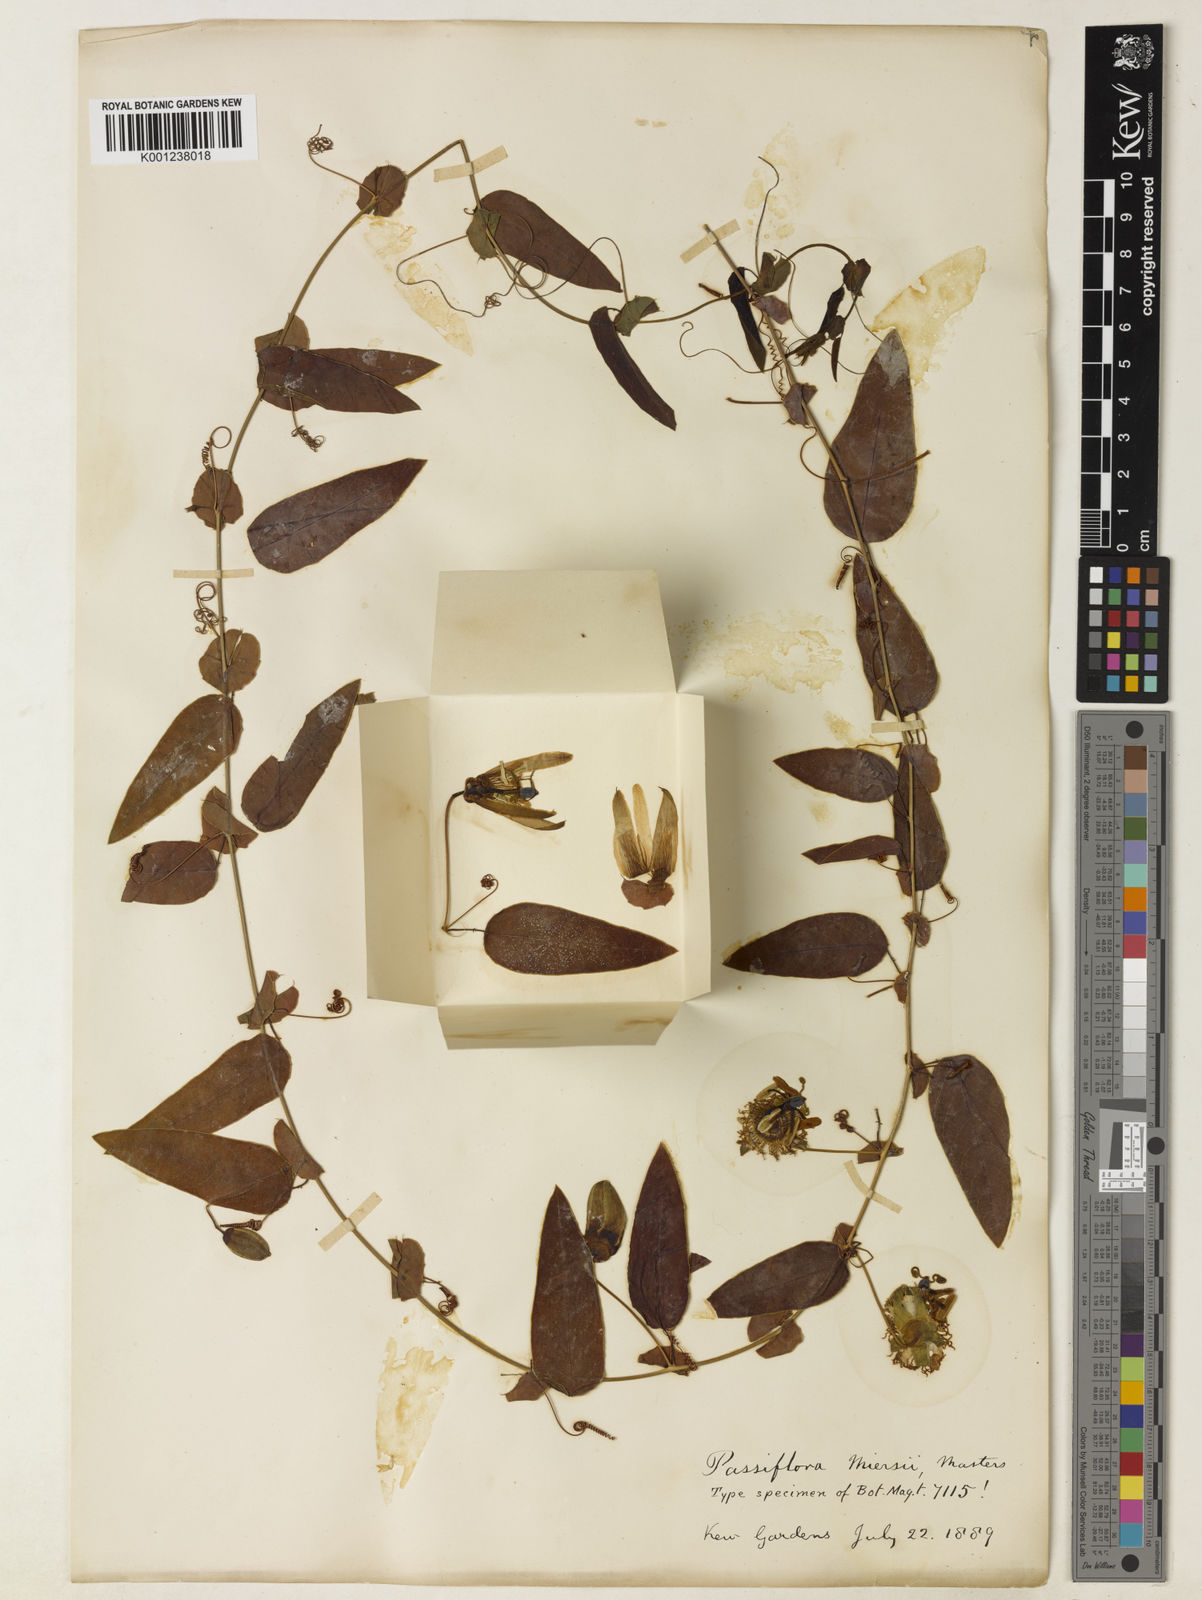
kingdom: Plantae
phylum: Tracheophyta
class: Magnoliopsida
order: Malpighiales
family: Passifloraceae
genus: Passiflora
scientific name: Passiflora miersii
